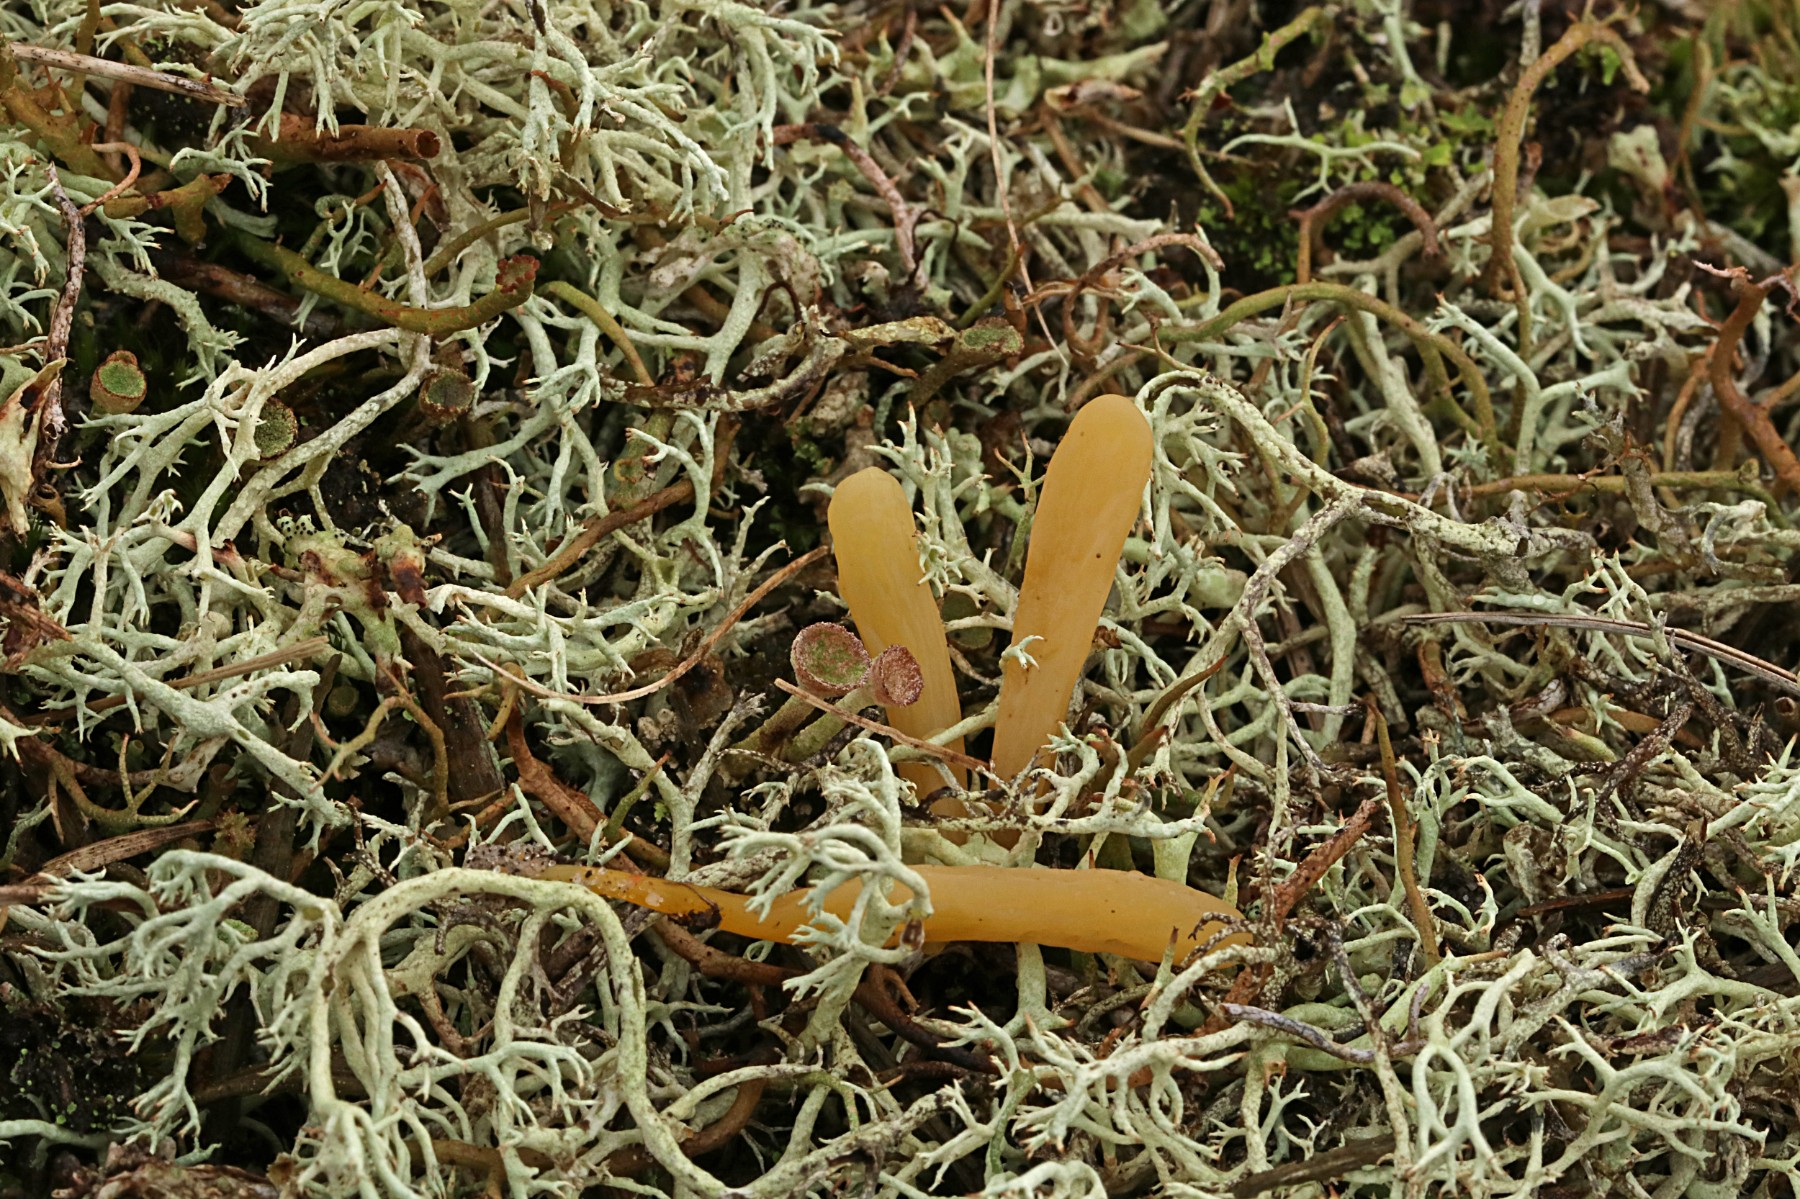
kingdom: Fungi
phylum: Basidiomycota
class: Agaricomycetes
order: Agaricales
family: Clavariaceae
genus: Clavaria
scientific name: Clavaria argillacea
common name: lerfarvet køllesvamp
